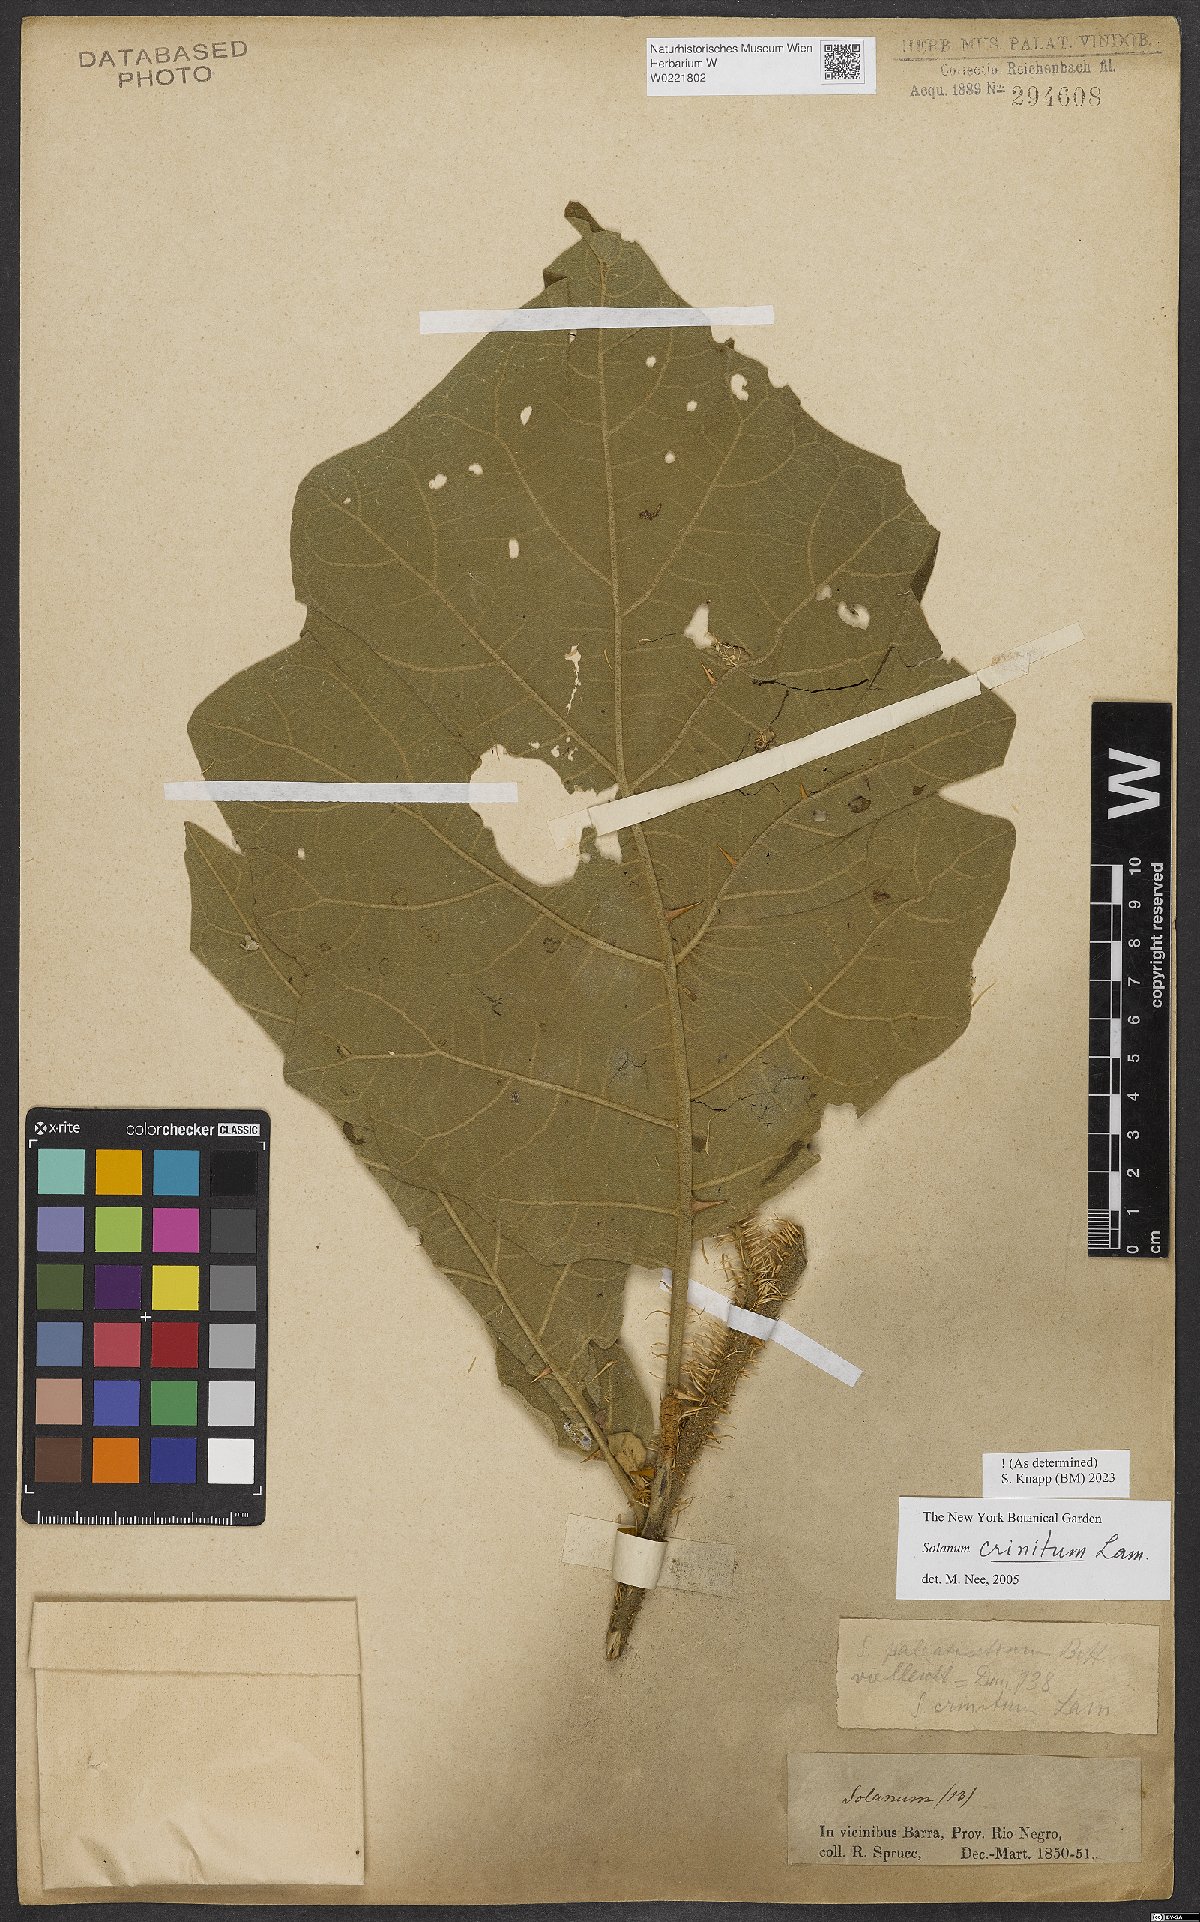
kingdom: Plantae
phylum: Tracheophyta
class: Magnoliopsida
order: Solanales
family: Solanaceae
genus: Solanum
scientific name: Solanum crinitum
